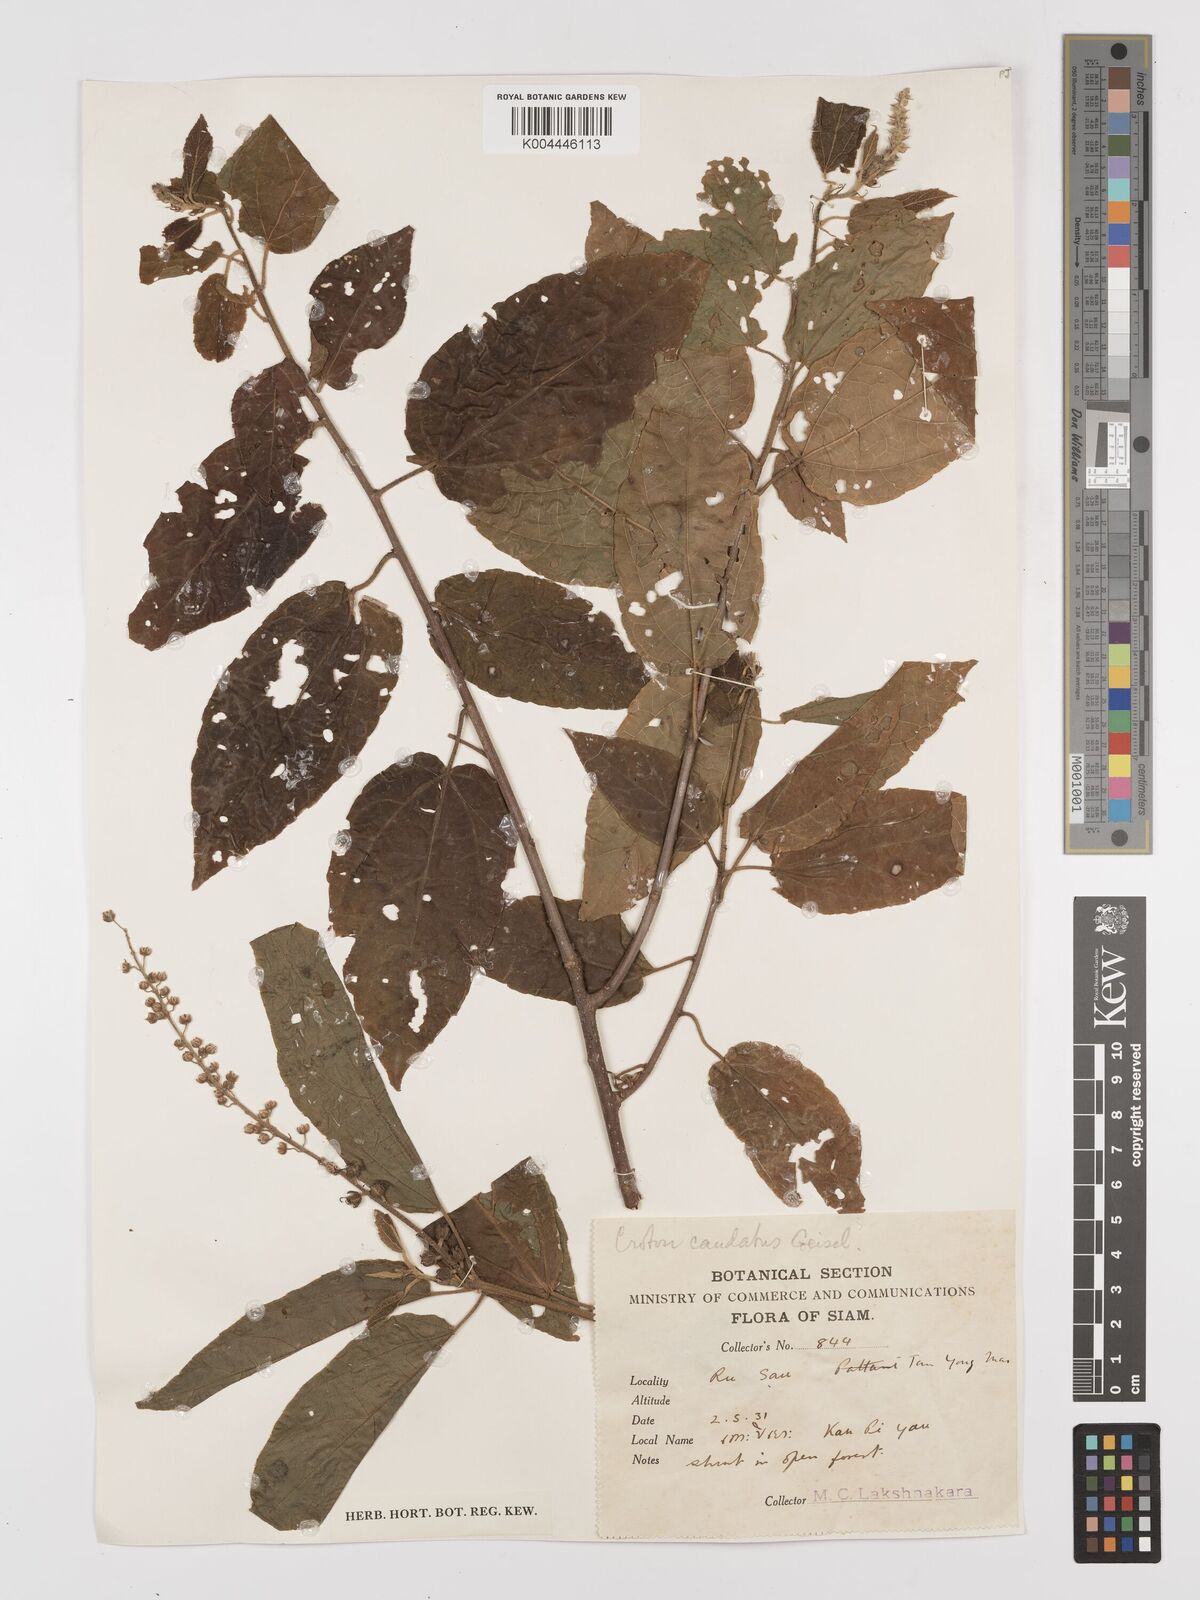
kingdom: Plantae
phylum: Tracheophyta
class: Magnoliopsida
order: Malpighiales
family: Euphorbiaceae
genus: Croton
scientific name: Croton caudatus
